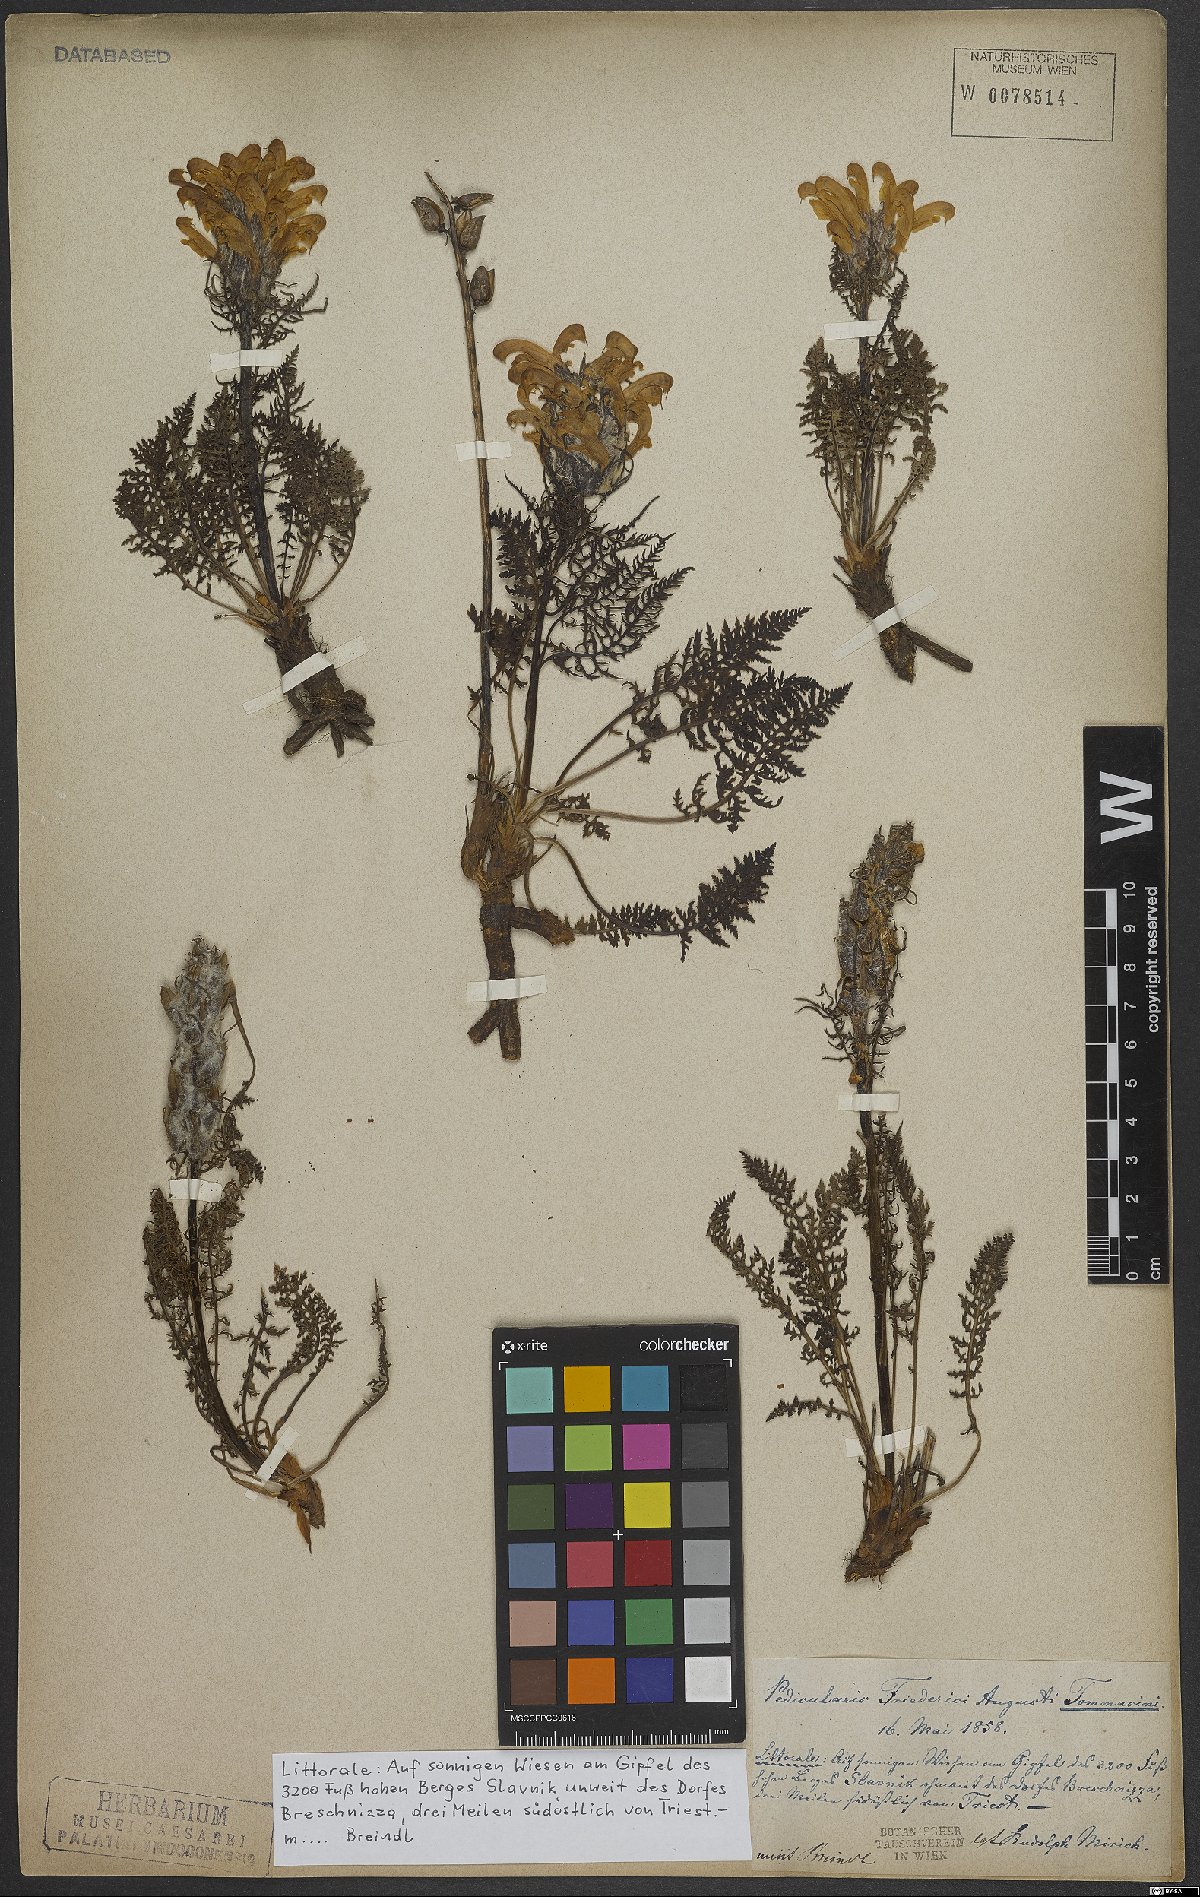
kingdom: Plantae
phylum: Tracheophyta
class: Magnoliopsida
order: Lamiales
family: Orobanchaceae
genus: Pedicularis
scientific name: Pedicularis friderici-augusti
